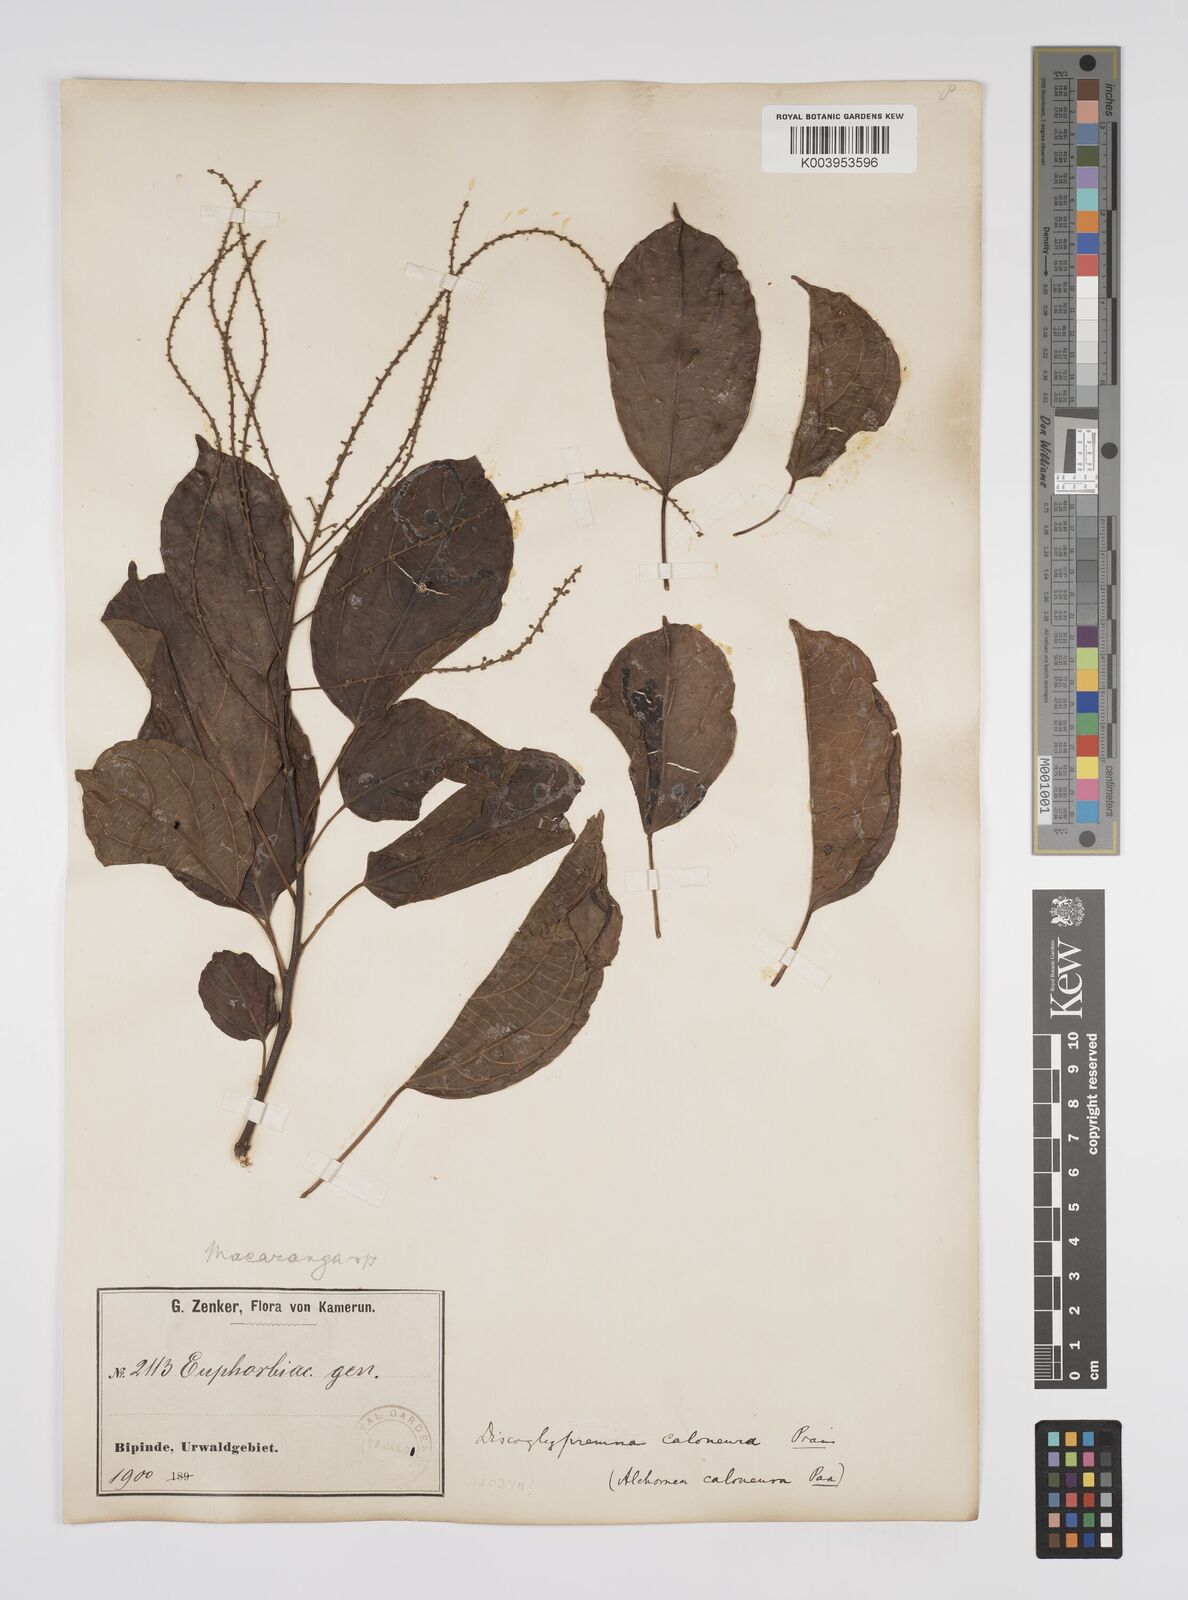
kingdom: Plantae
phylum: Tracheophyta
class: Magnoliopsida
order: Malpighiales
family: Euphorbiaceae
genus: Discoglypremna
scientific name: Discoglypremna caloneura
